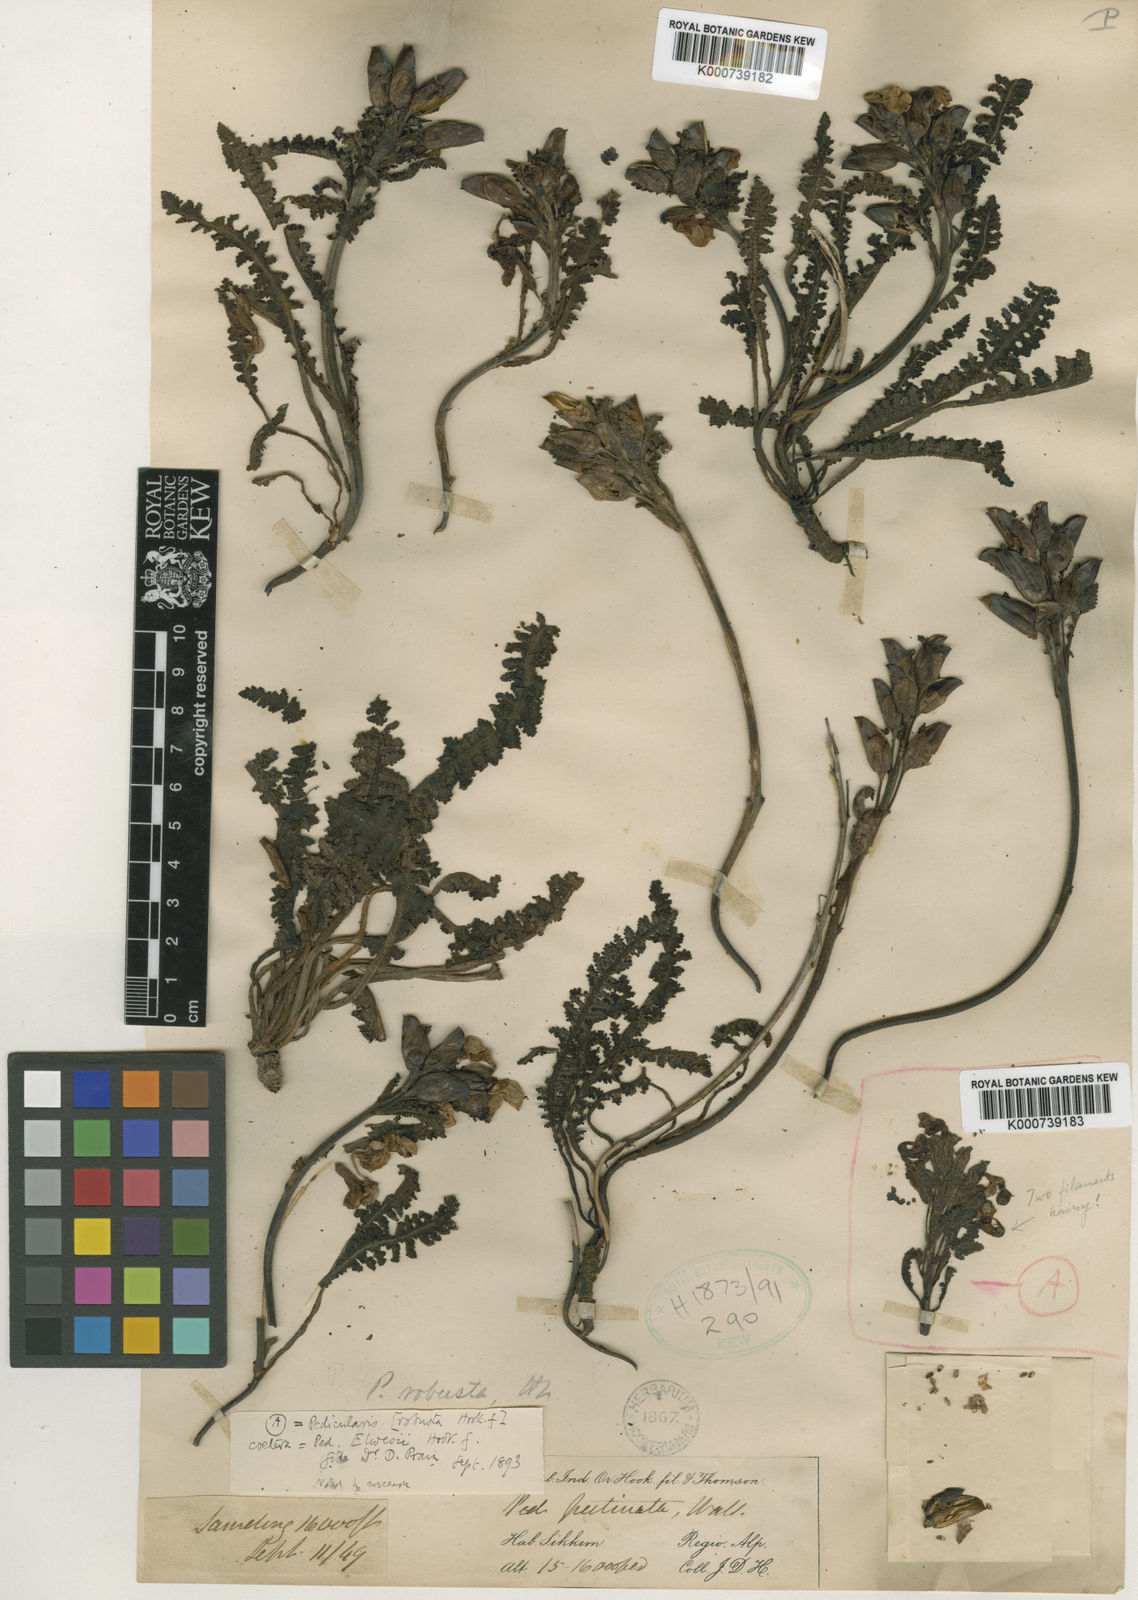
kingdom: Plantae
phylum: Tracheophyta
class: Magnoliopsida
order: Lamiales
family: Orobanchaceae
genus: Pedicularis
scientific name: Pedicularis robusta
